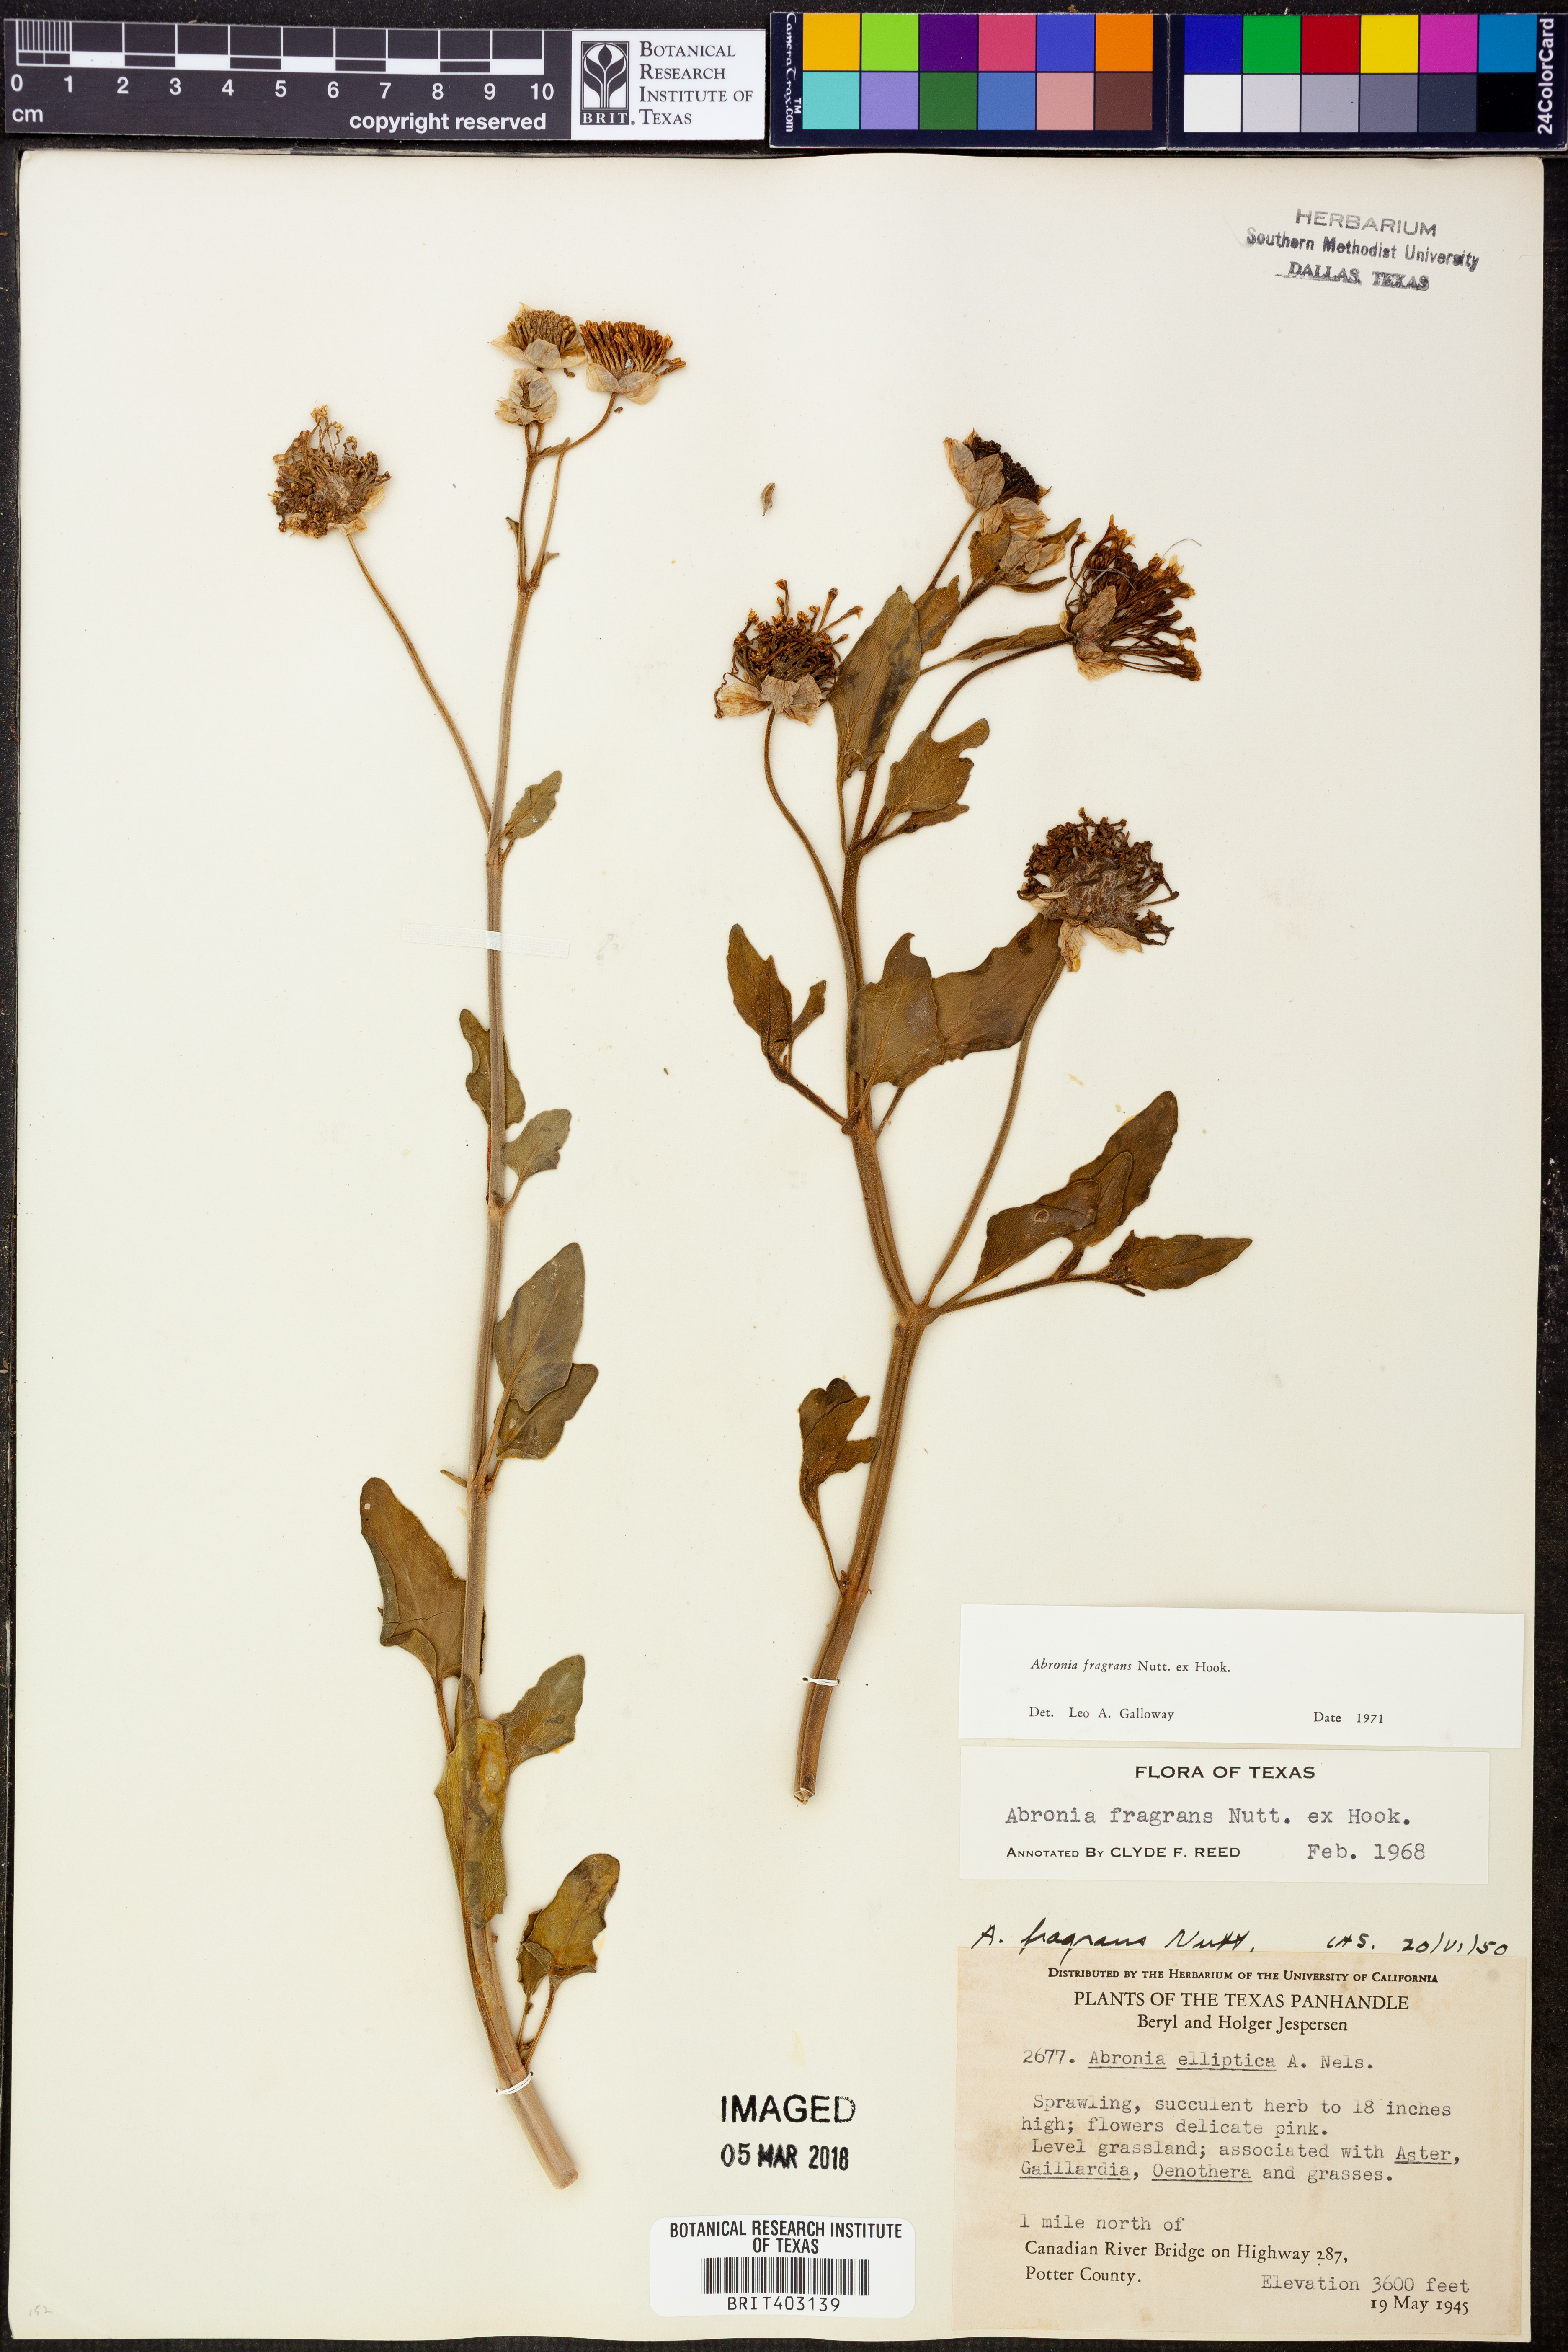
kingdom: Plantae
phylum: Tracheophyta
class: Magnoliopsida
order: Caryophyllales
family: Nyctaginaceae
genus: Abronia
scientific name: Abronia fragrans
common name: Fragrant sand-verbena
